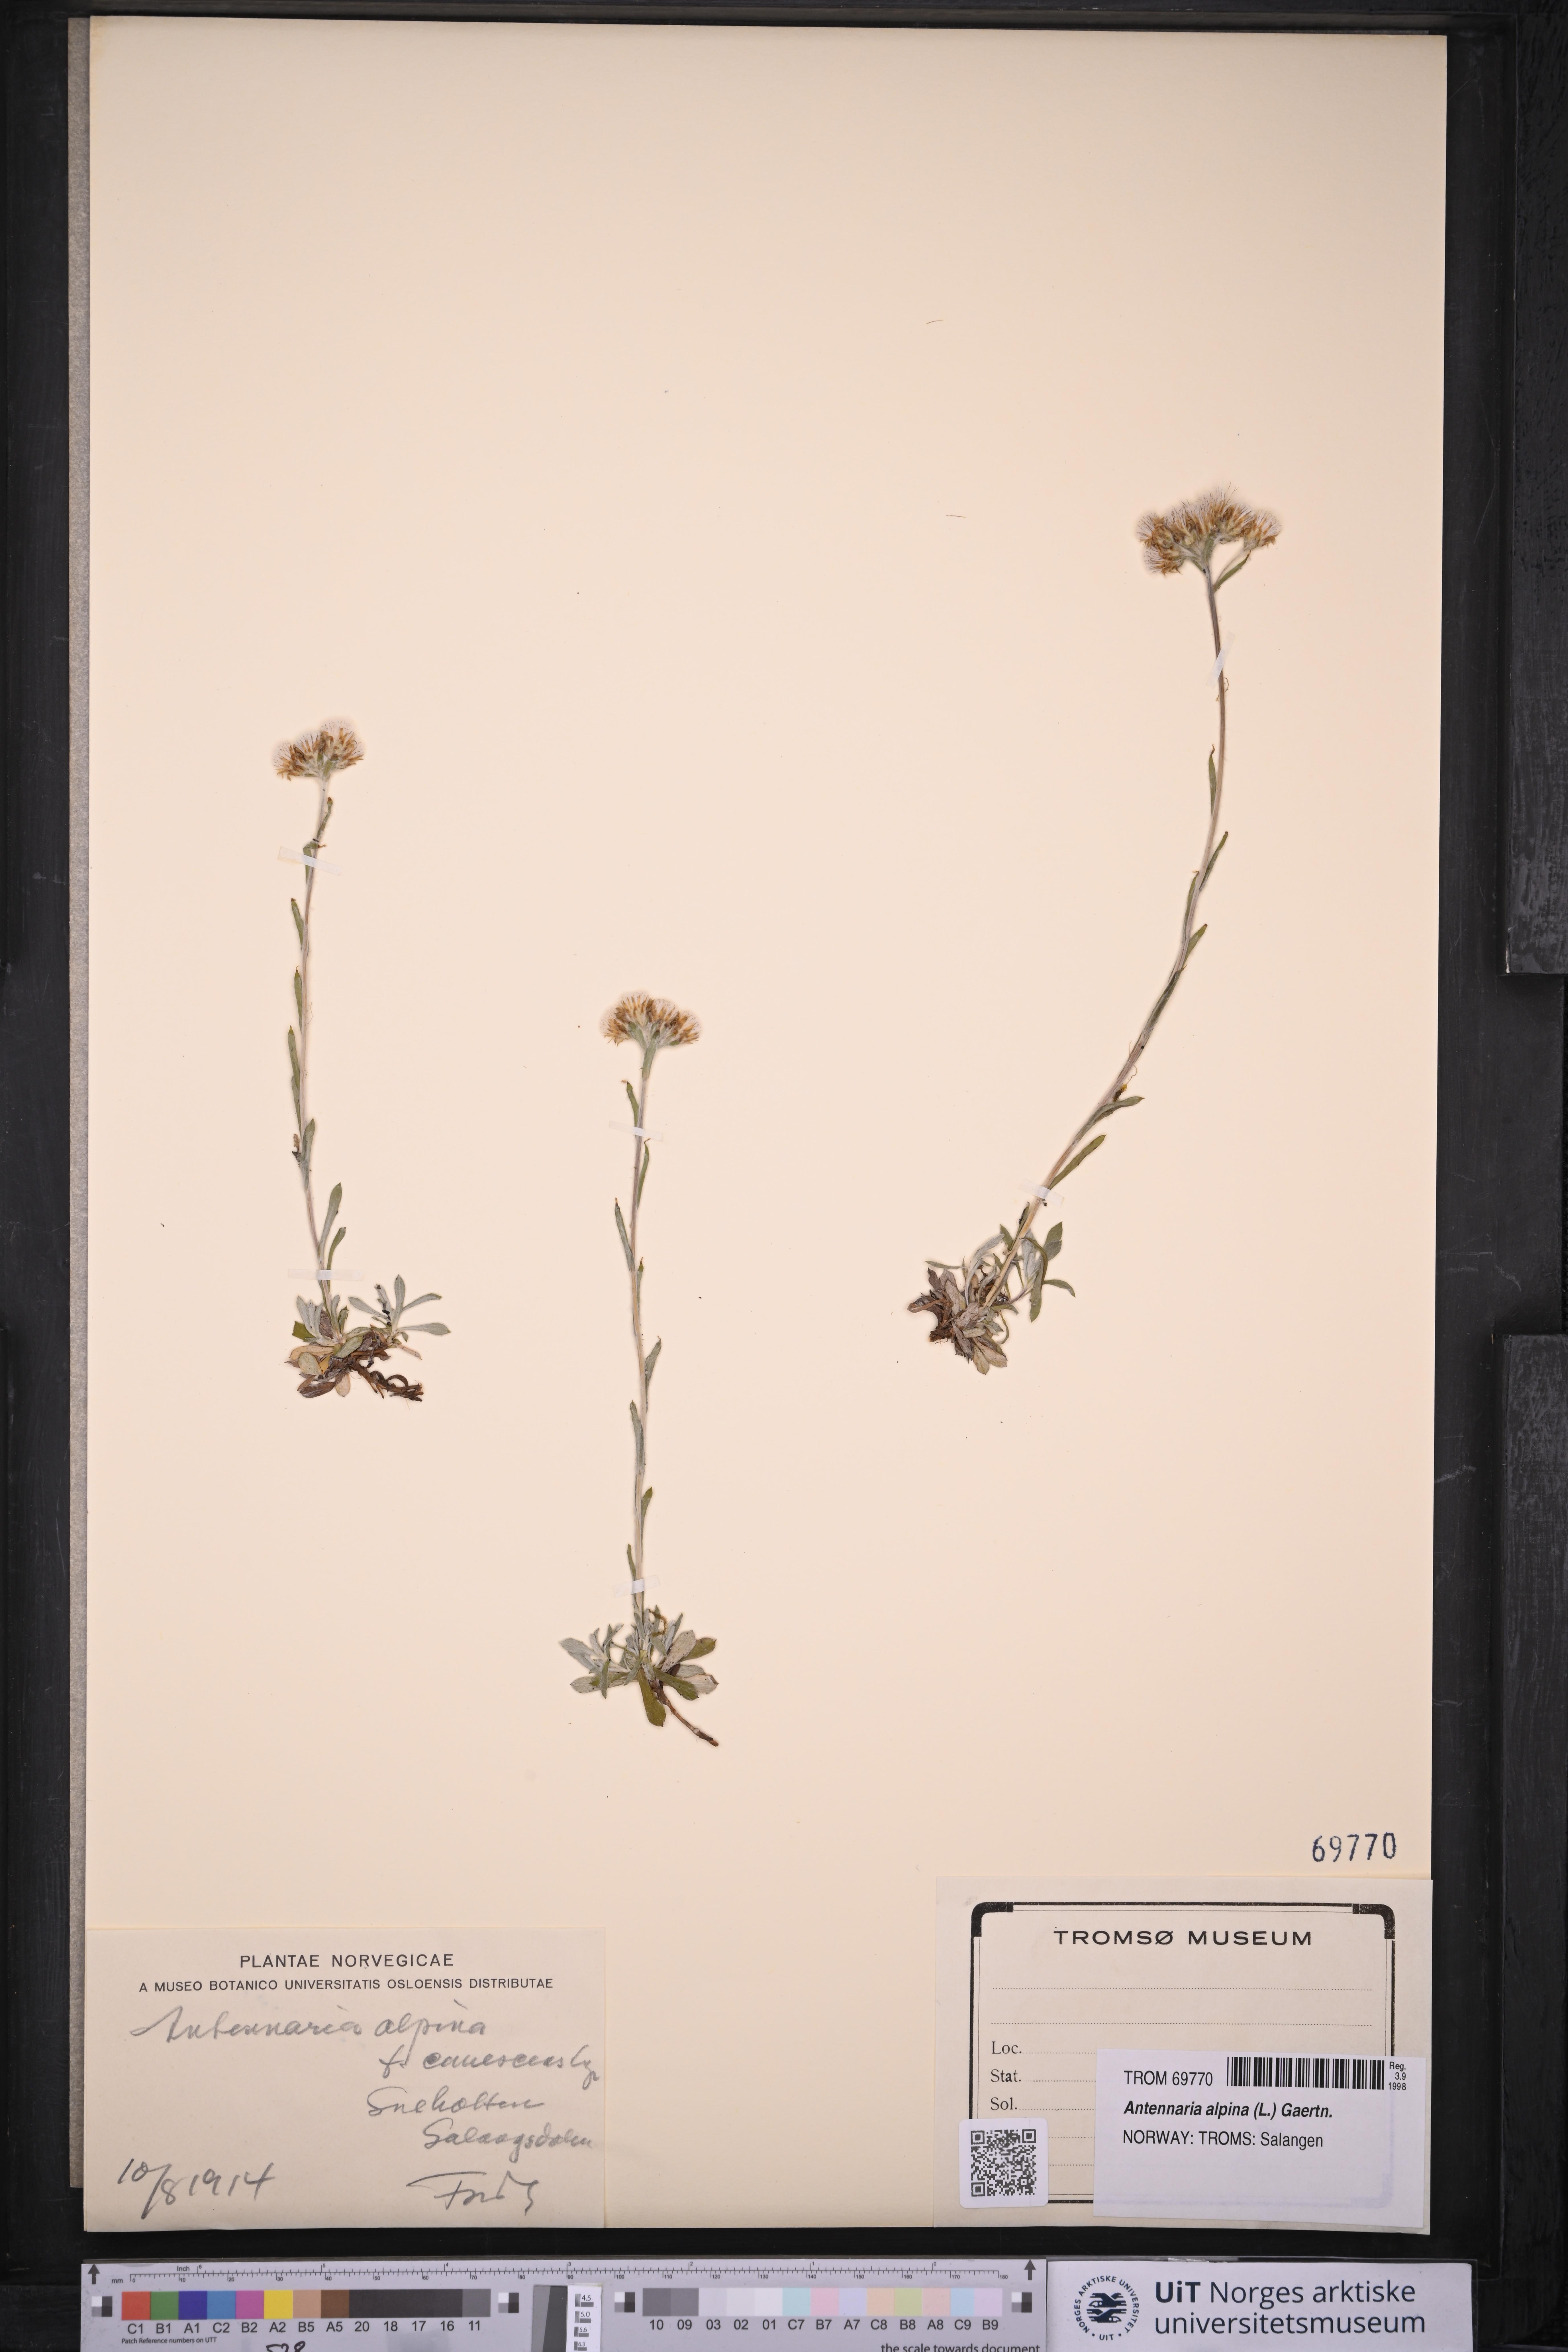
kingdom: Plantae
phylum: Tracheophyta
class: Magnoliopsida
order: Asterales
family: Asteraceae
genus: Antennaria
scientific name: Antennaria alpina
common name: Alpine pussytoes
